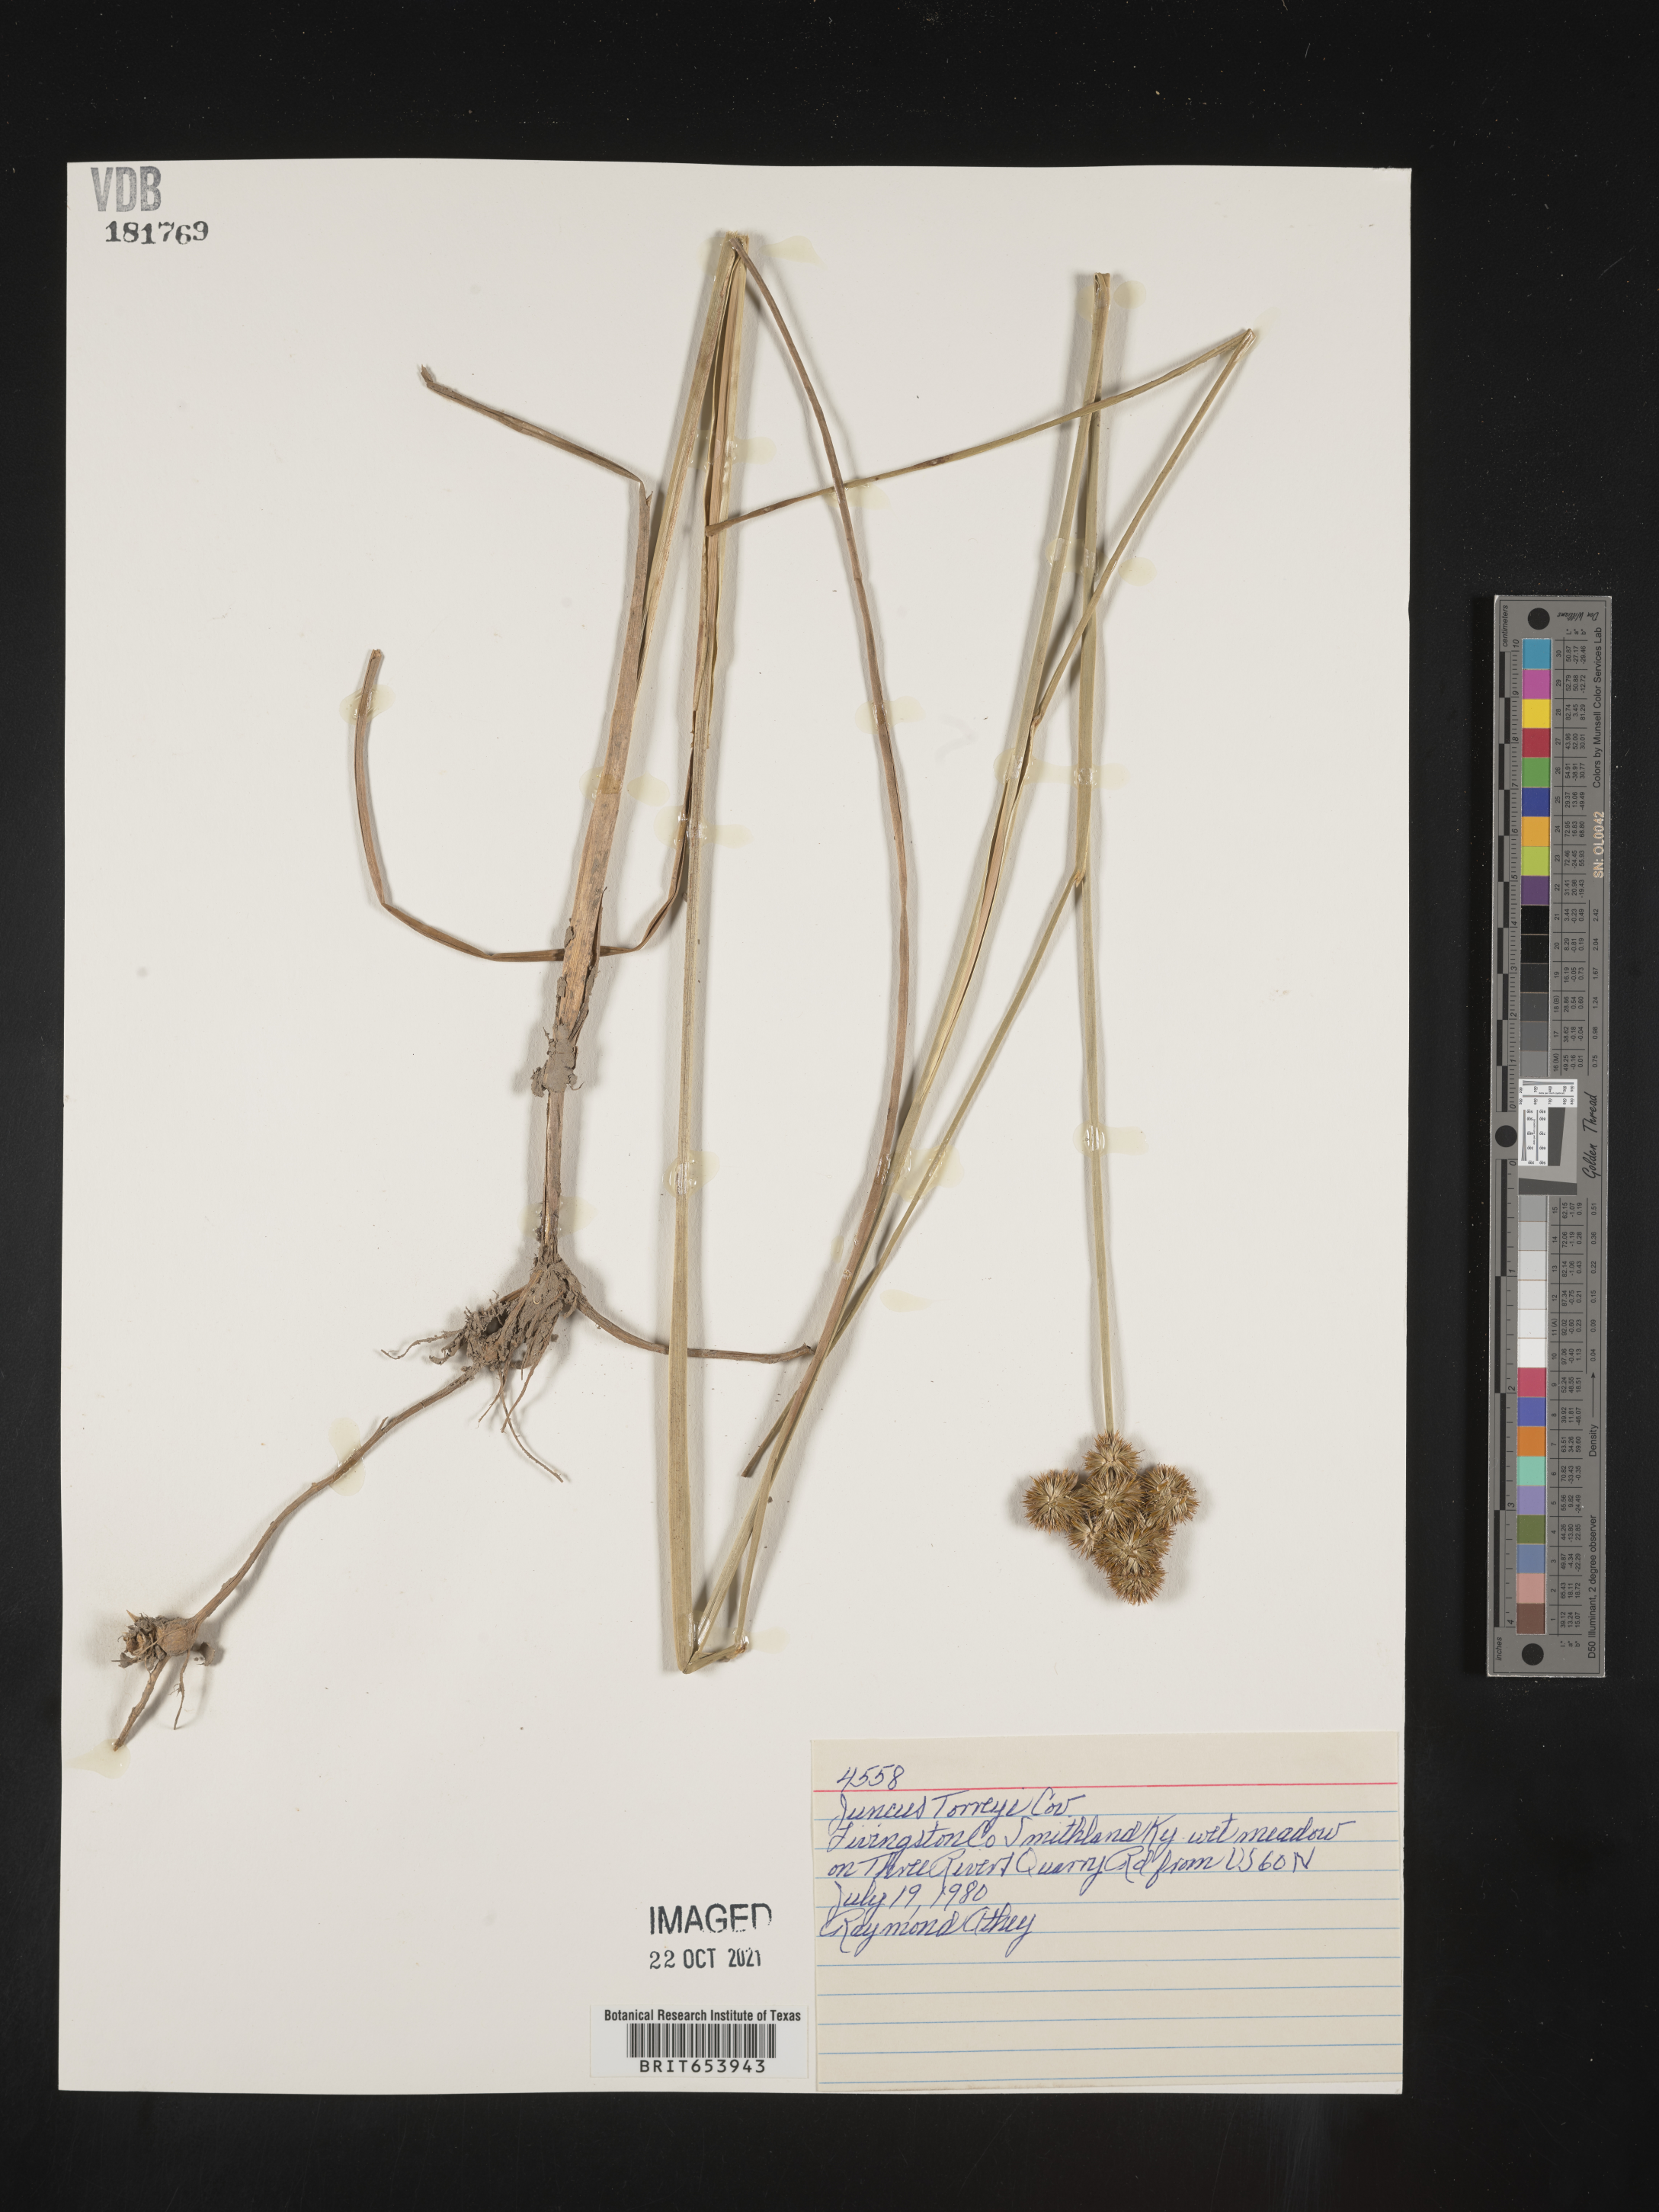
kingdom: Plantae
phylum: Tracheophyta
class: Liliopsida
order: Poales
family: Juncaceae
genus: Juncus
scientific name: Juncus torreyi
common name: Torrey's rush
